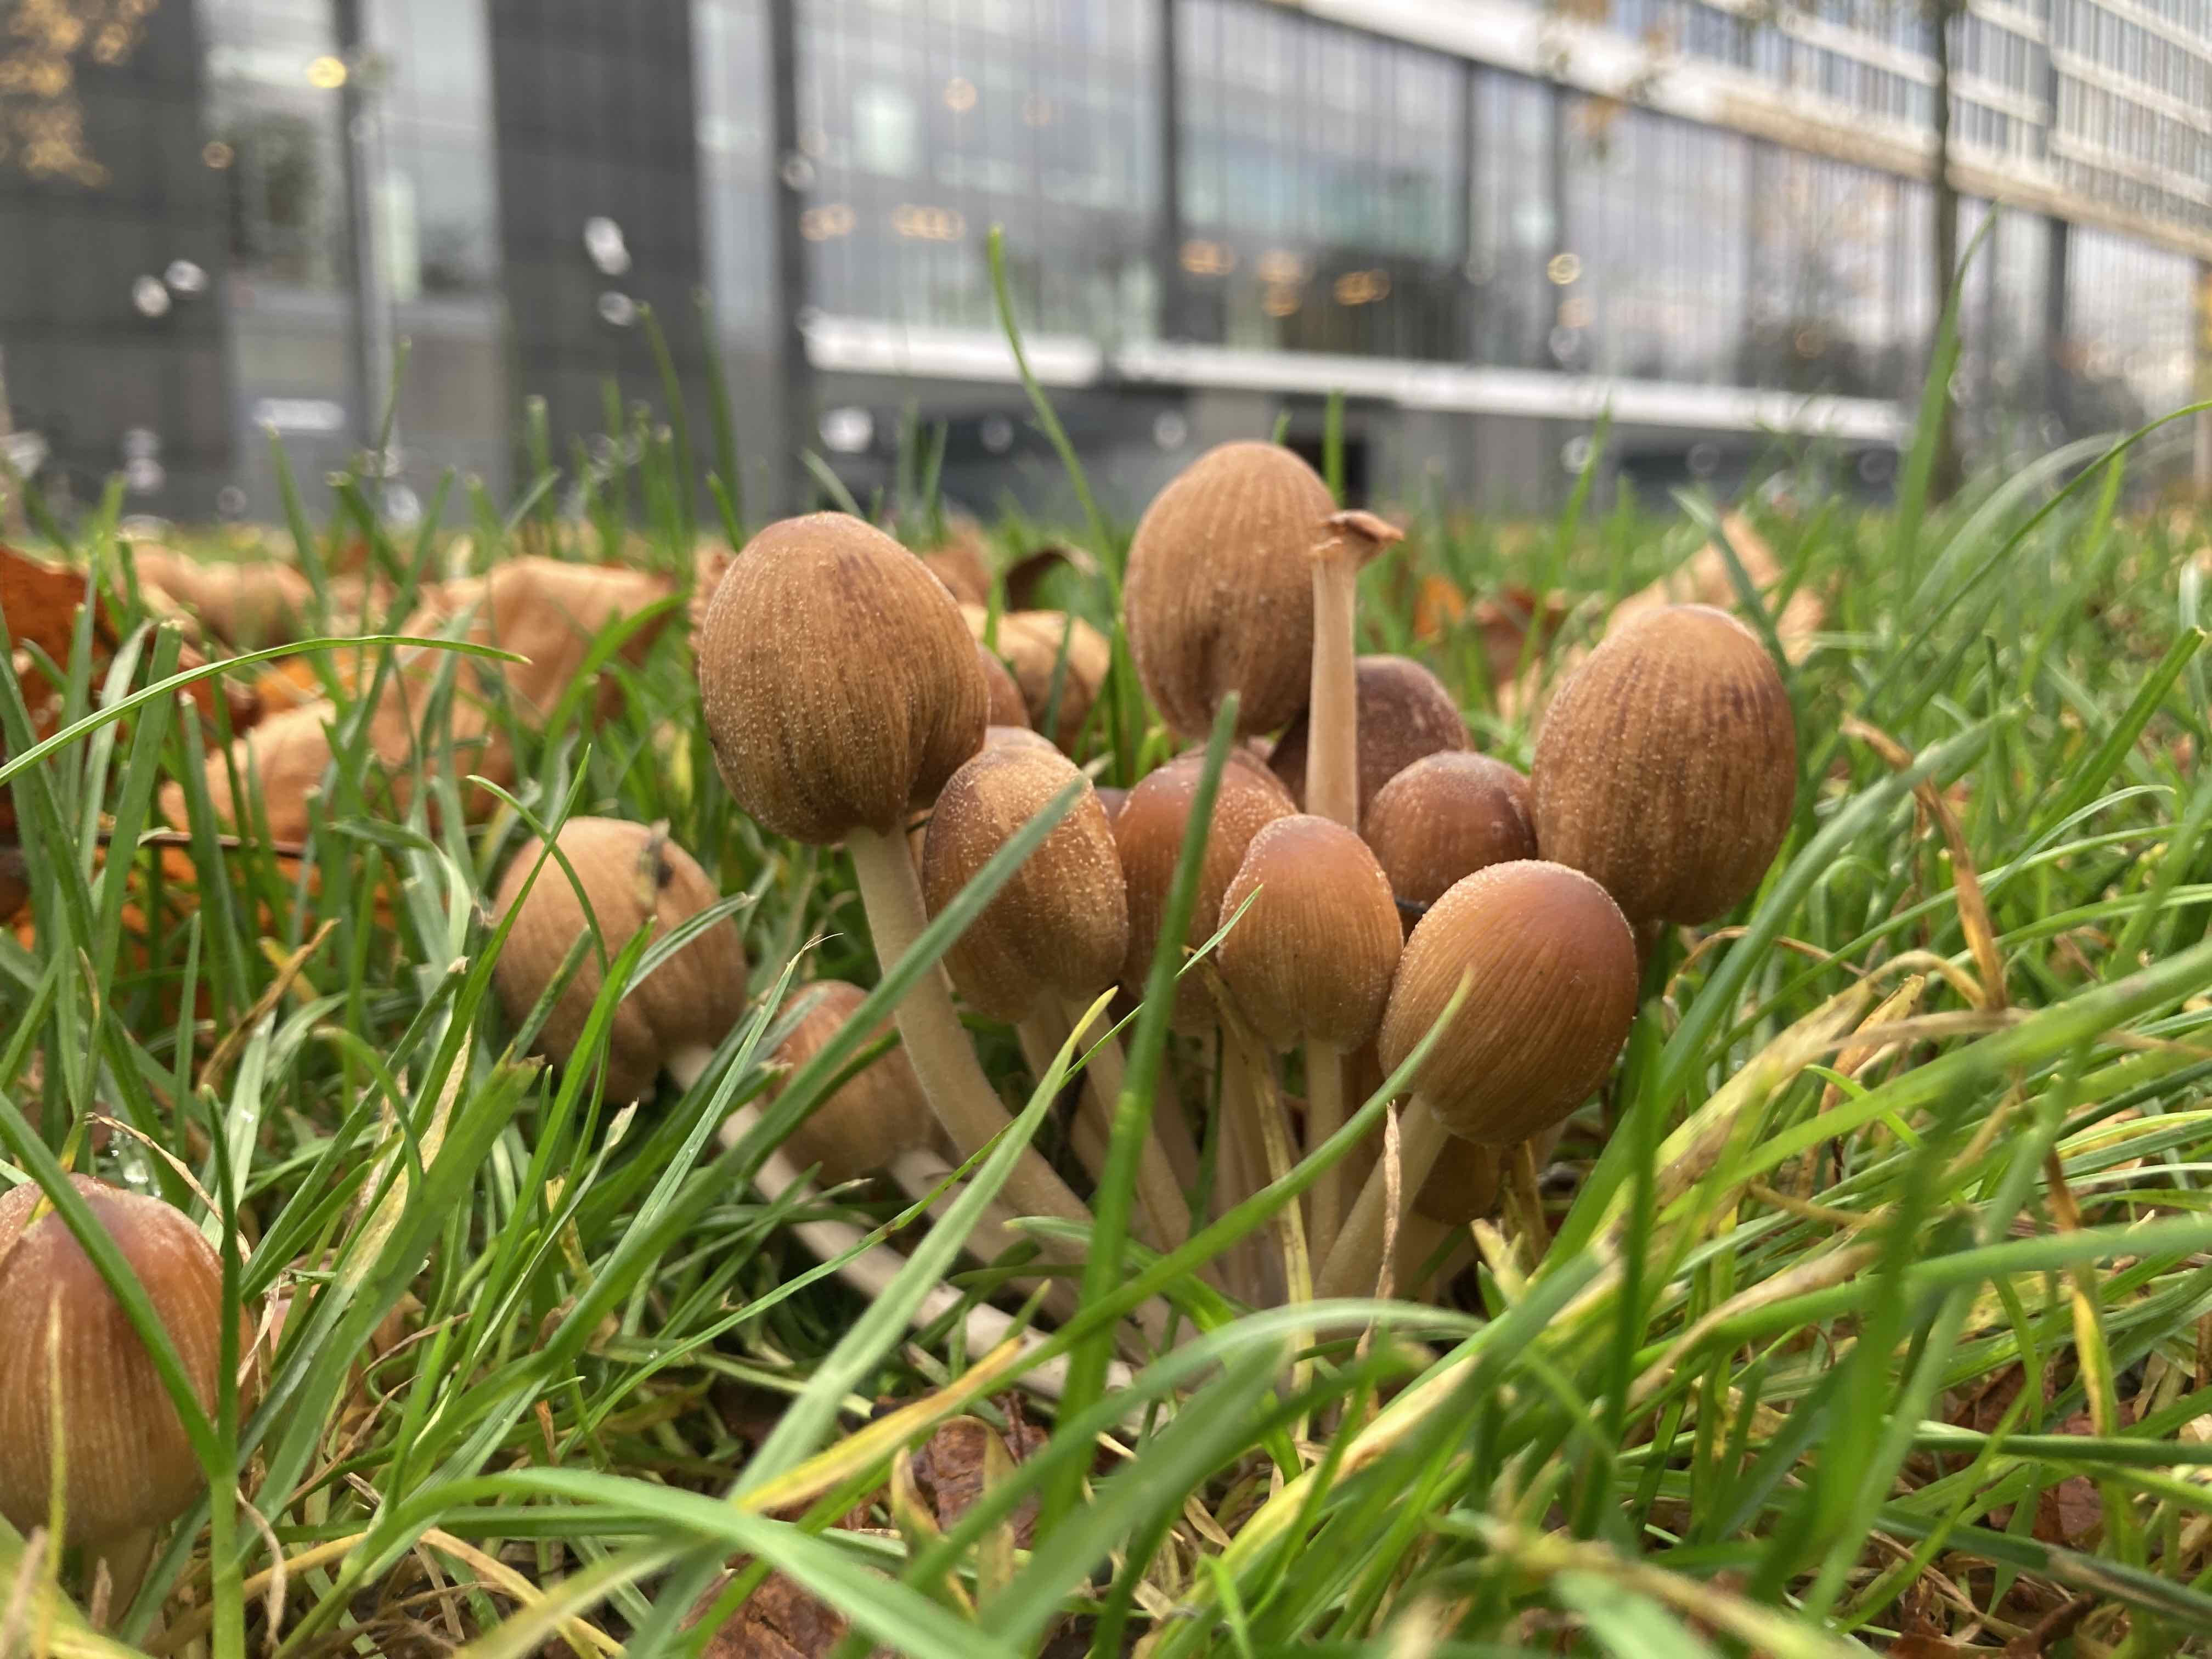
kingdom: Fungi
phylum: Basidiomycota
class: Agaricomycetes
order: Agaricales
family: Psathyrellaceae
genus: Coprinellus
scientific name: Coprinellus
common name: blækhat
